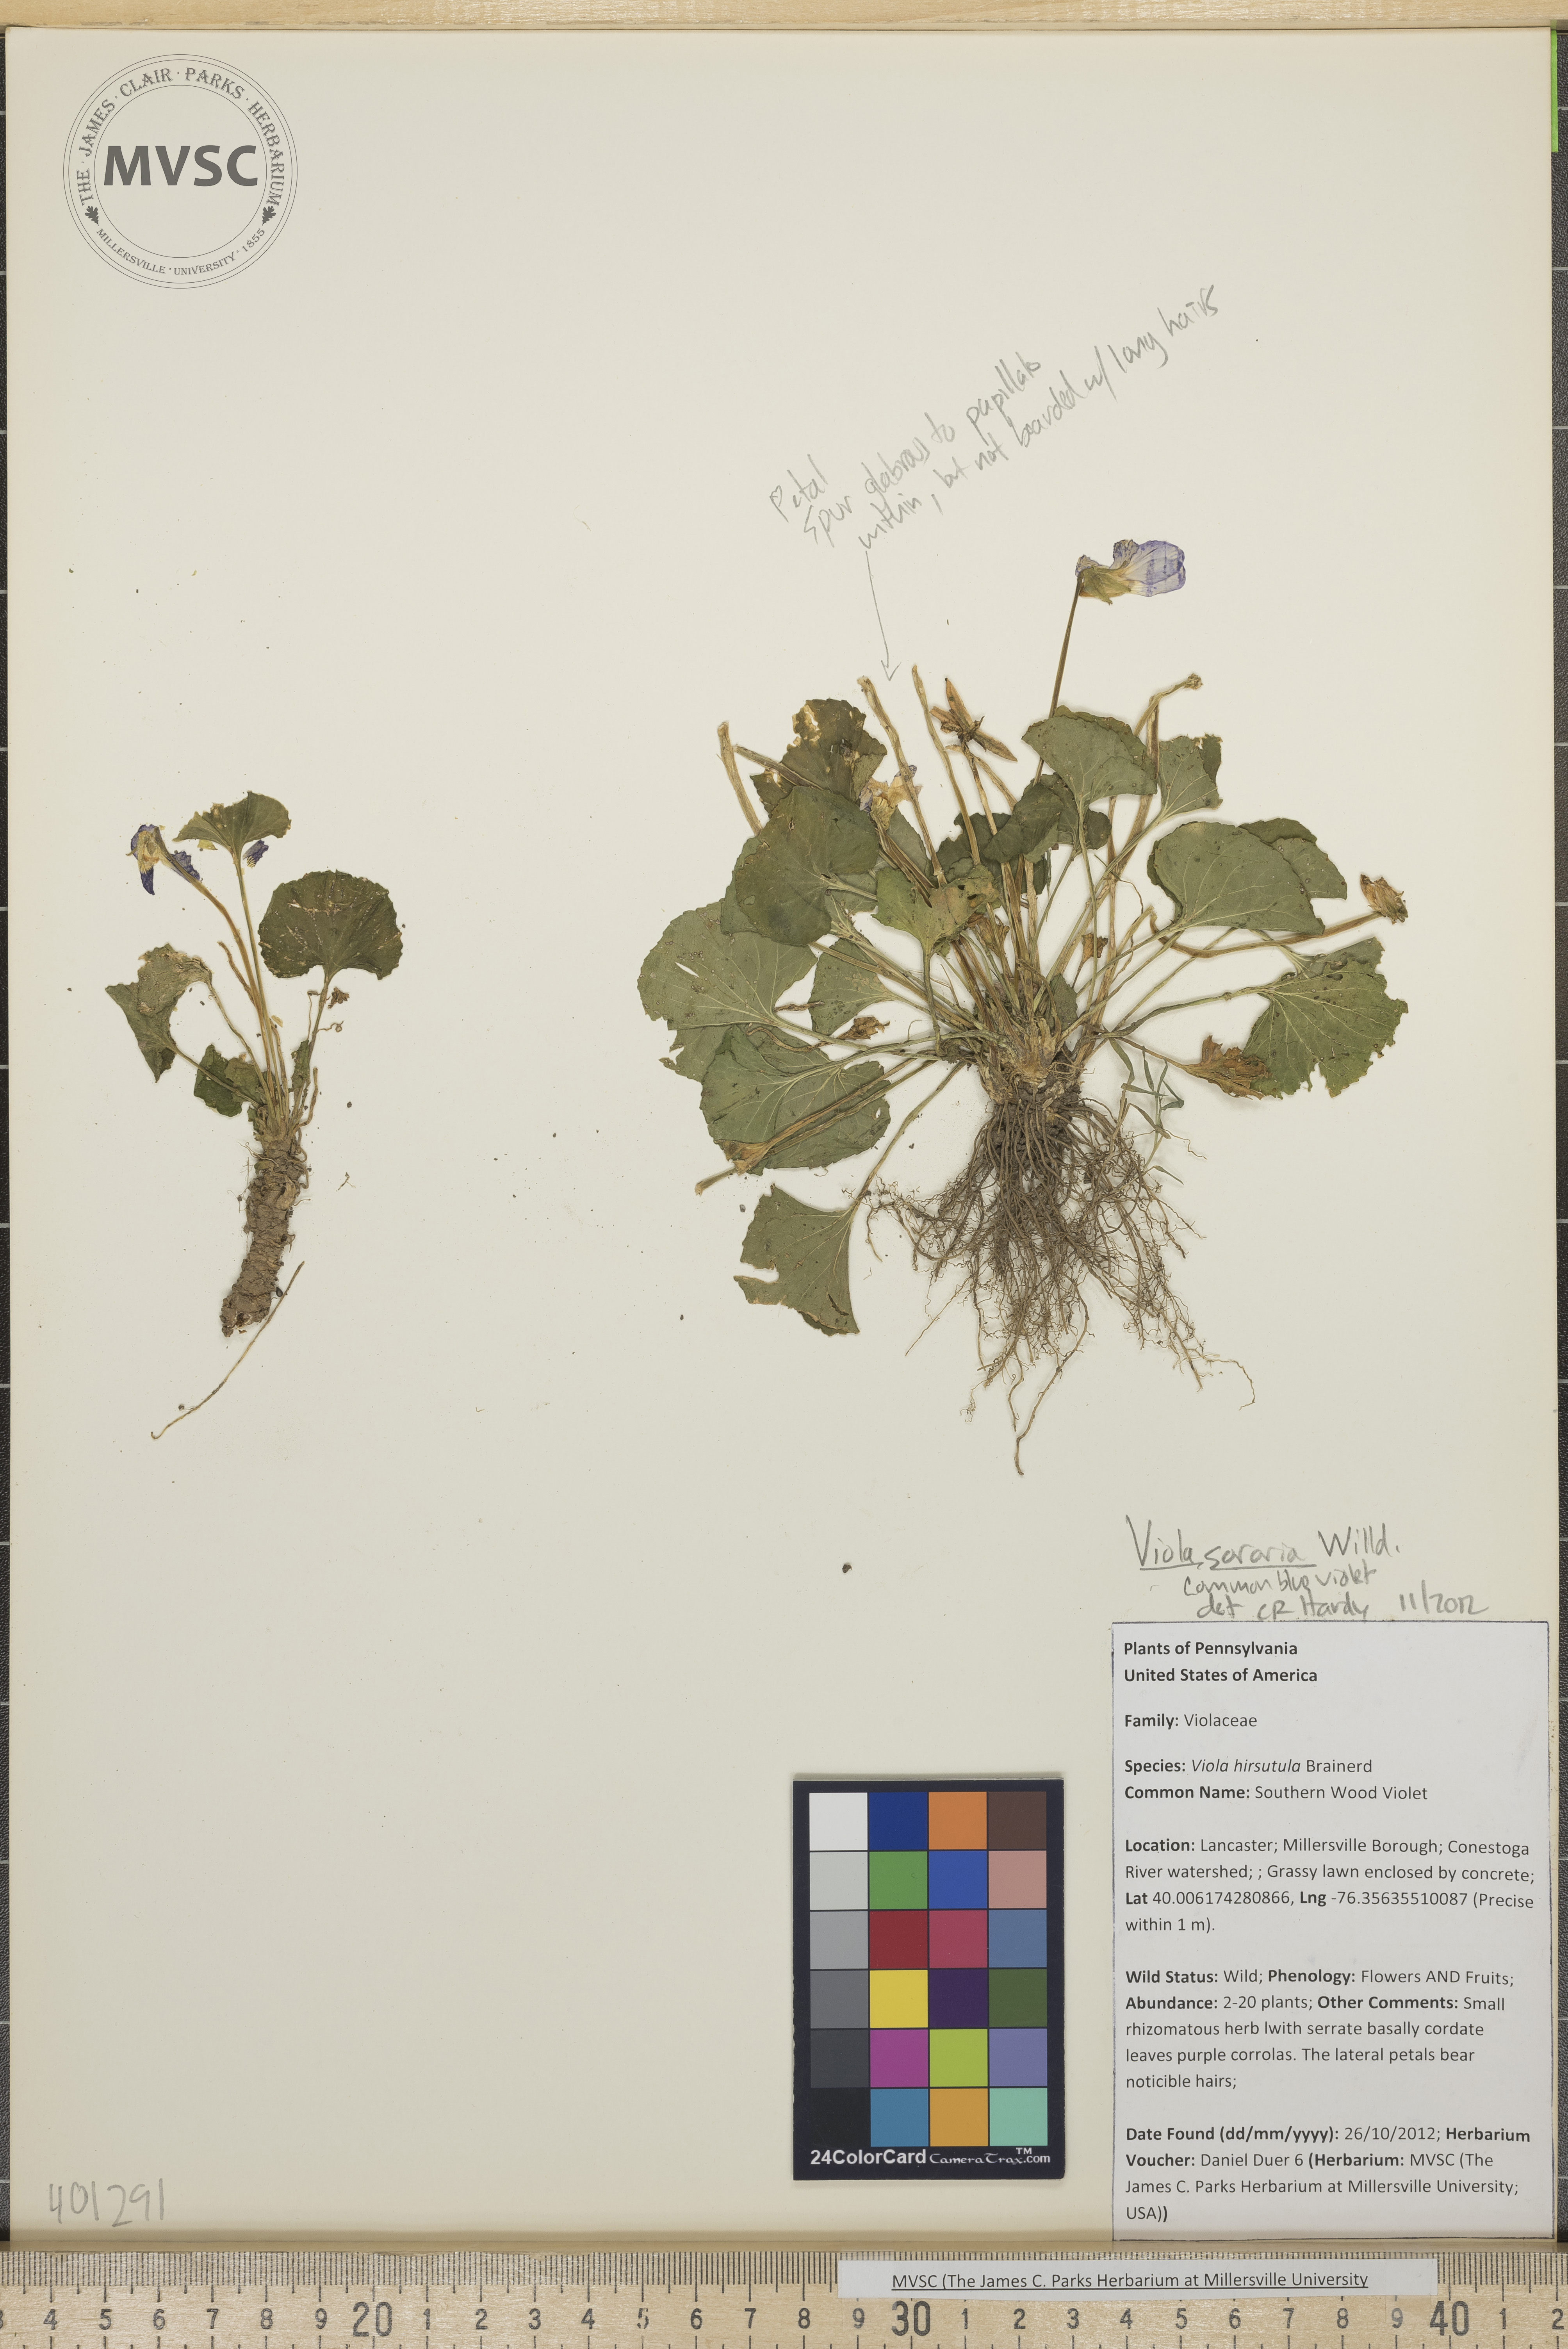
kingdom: Plantae
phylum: Tracheophyta
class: Magnoliopsida
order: Malpighiales
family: Violaceae
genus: Viola
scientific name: Viola sororia
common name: Common Blue Violet
